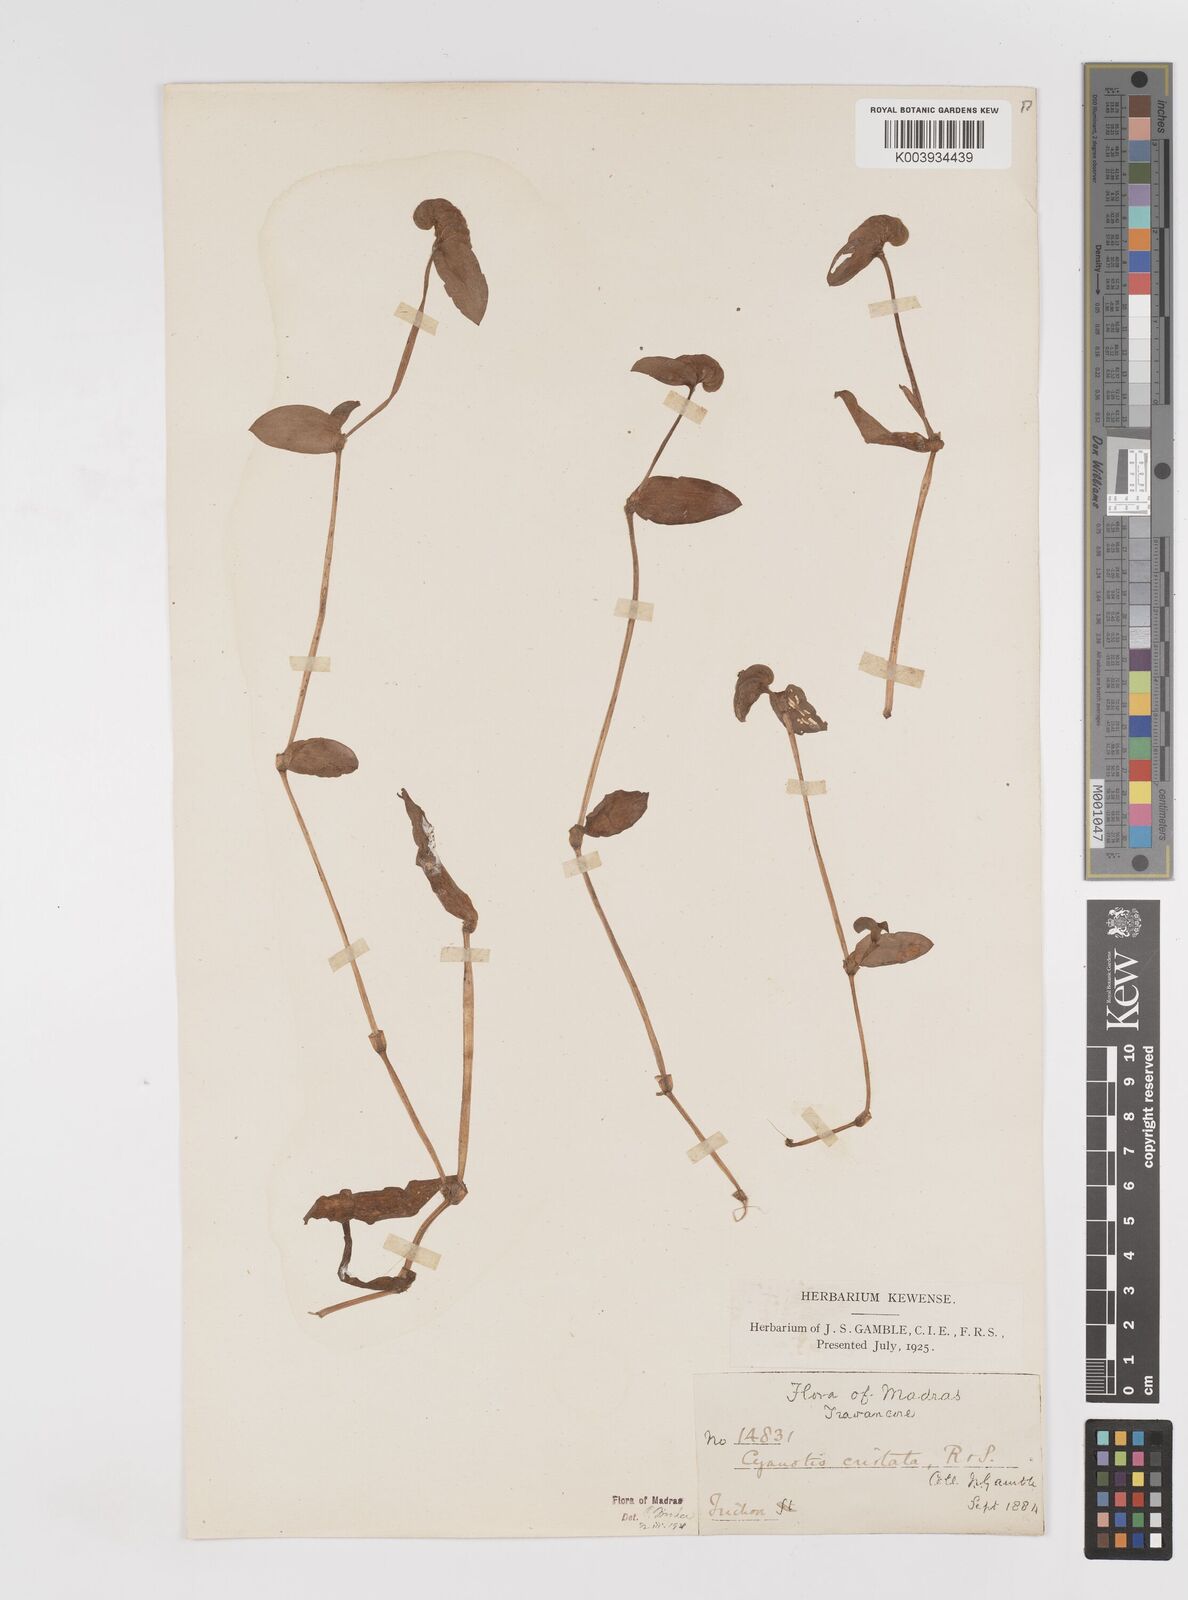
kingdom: Plantae
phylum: Tracheophyta
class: Liliopsida
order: Commelinales
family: Commelinaceae
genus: Cyanotis
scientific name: Cyanotis cristata
